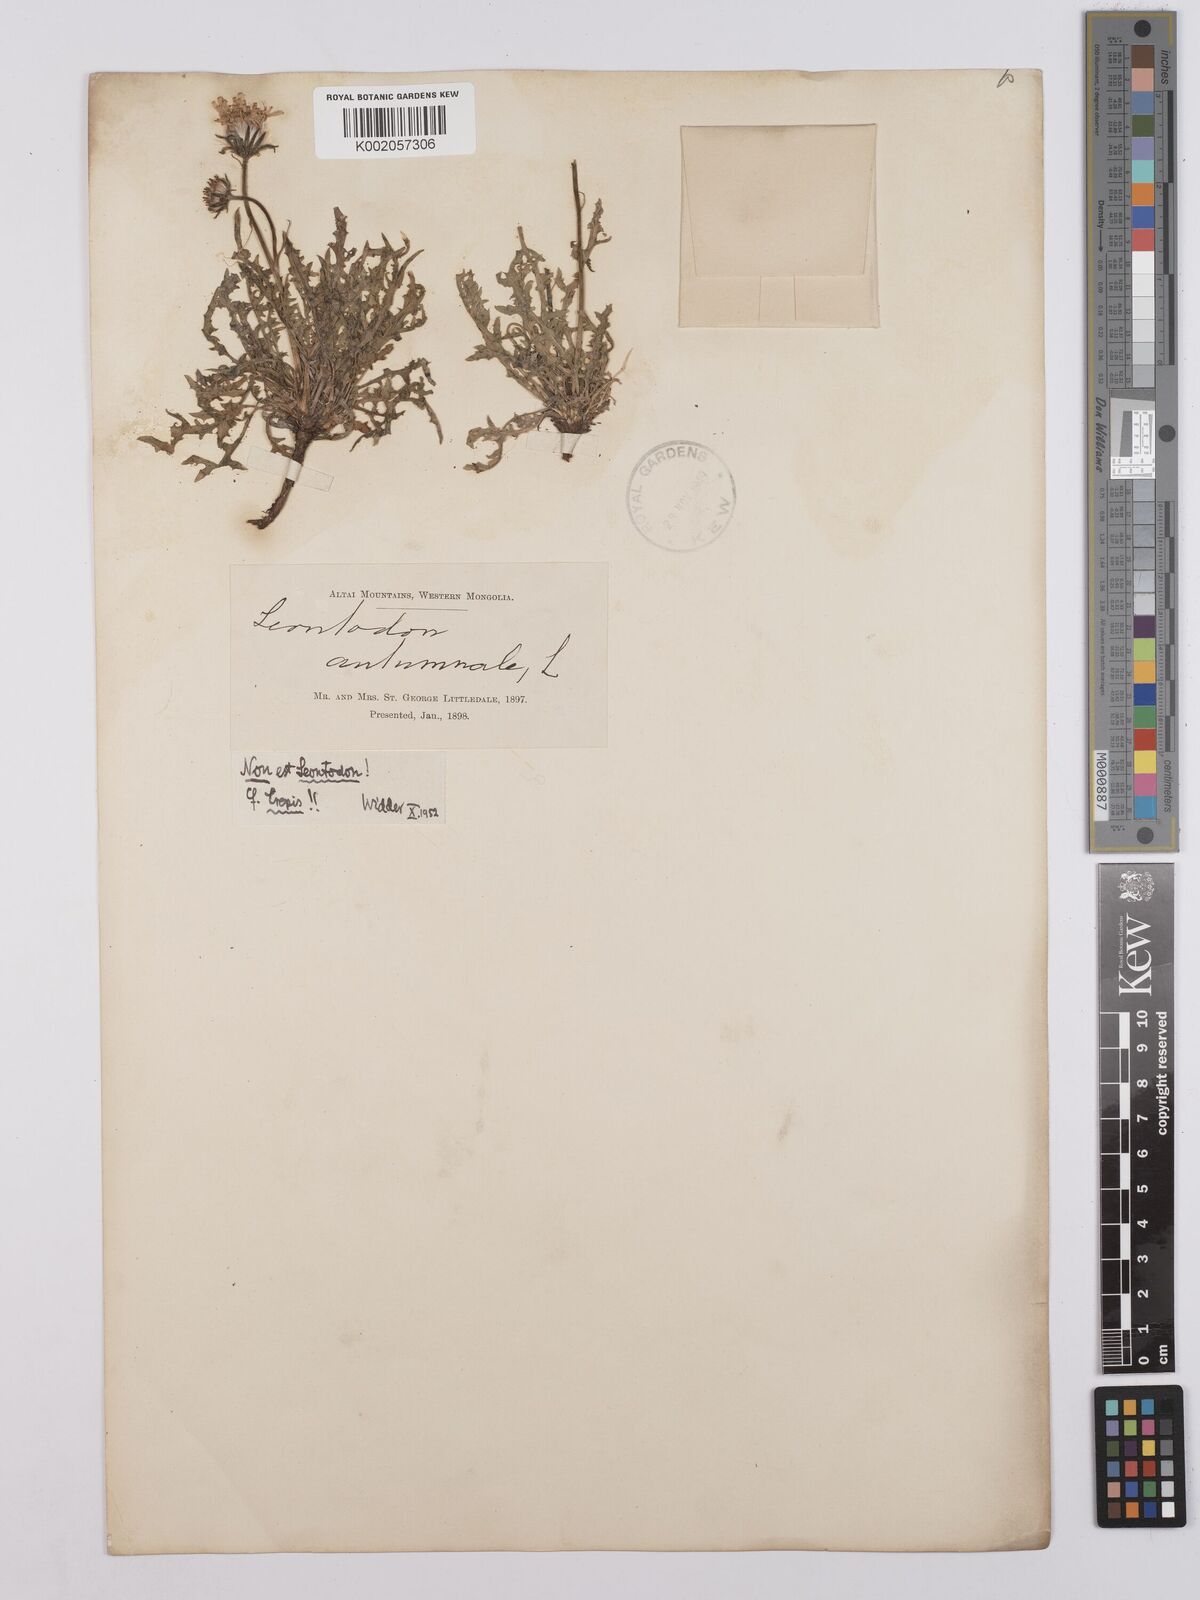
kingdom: Plantae
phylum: Tracheophyta
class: Magnoliopsida
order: Asterales
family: Asteraceae
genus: Crepis
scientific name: Crepis crocea
